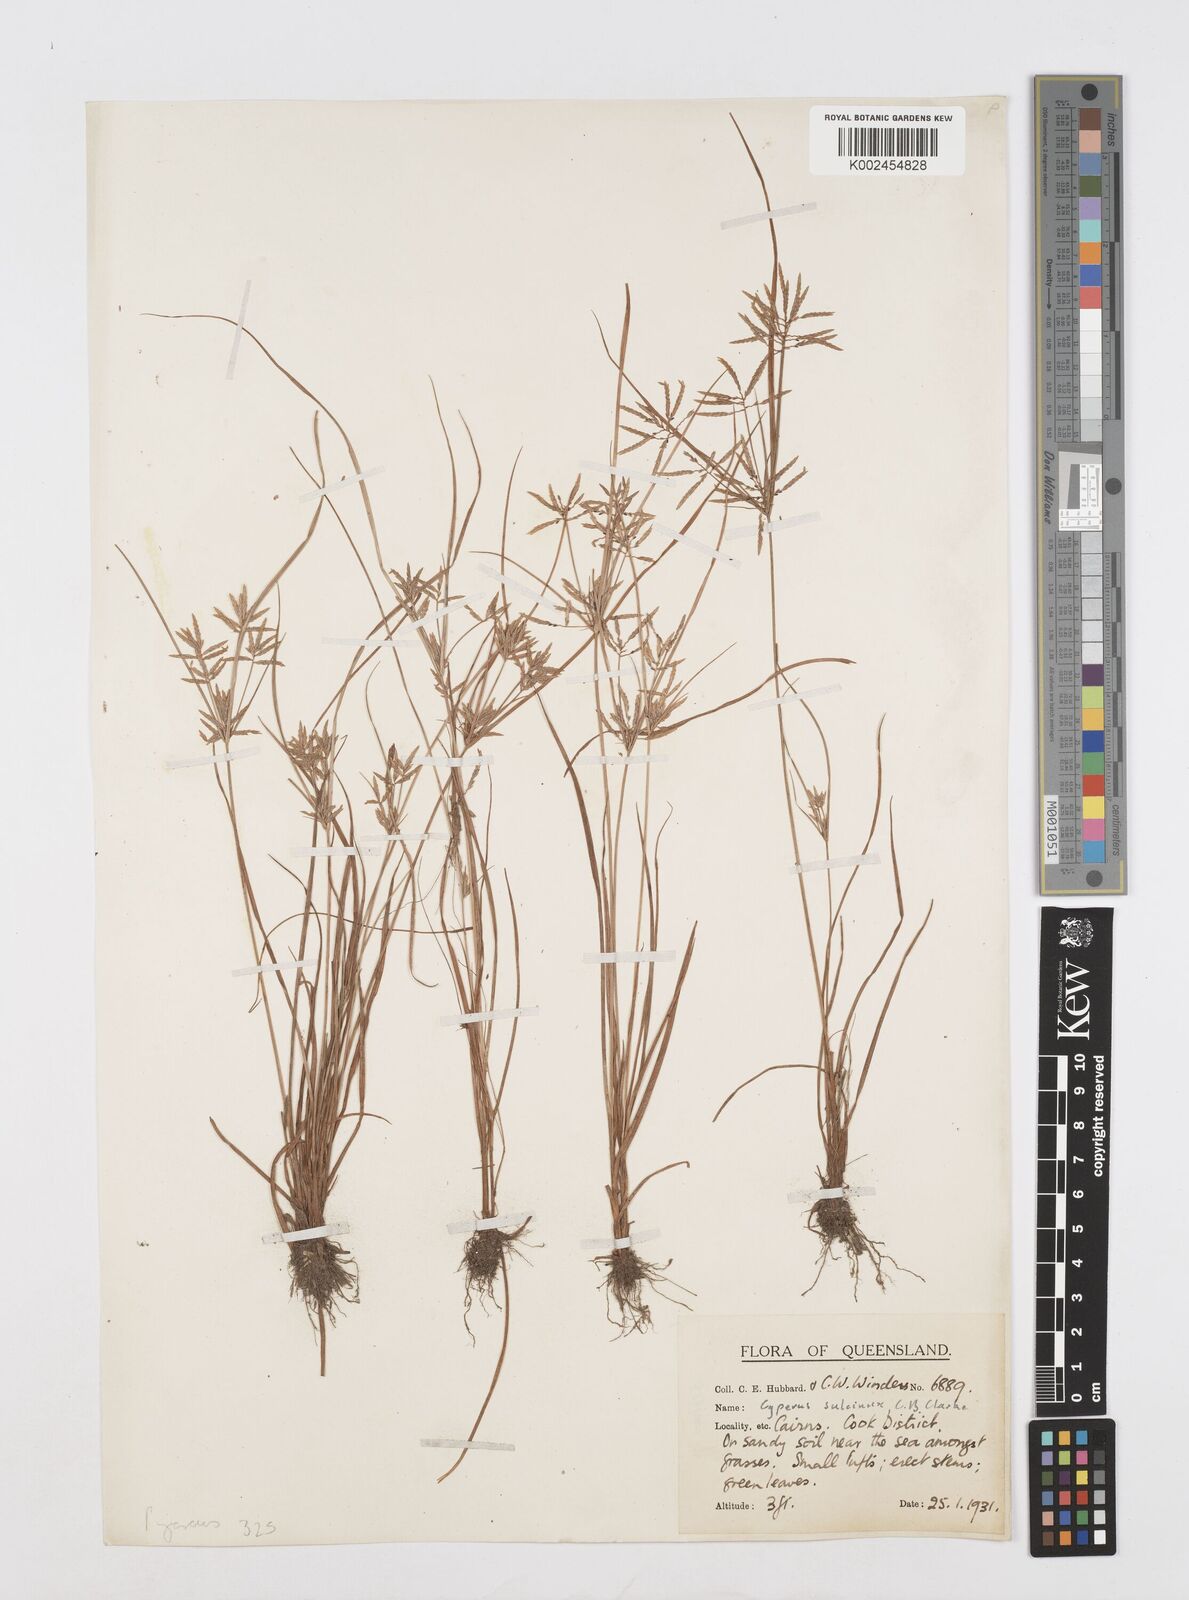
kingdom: Plantae
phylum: Tracheophyta
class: Liliopsida
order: Poales
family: Cyperaceae
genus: Cyperus
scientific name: Cyperus sulcinux
